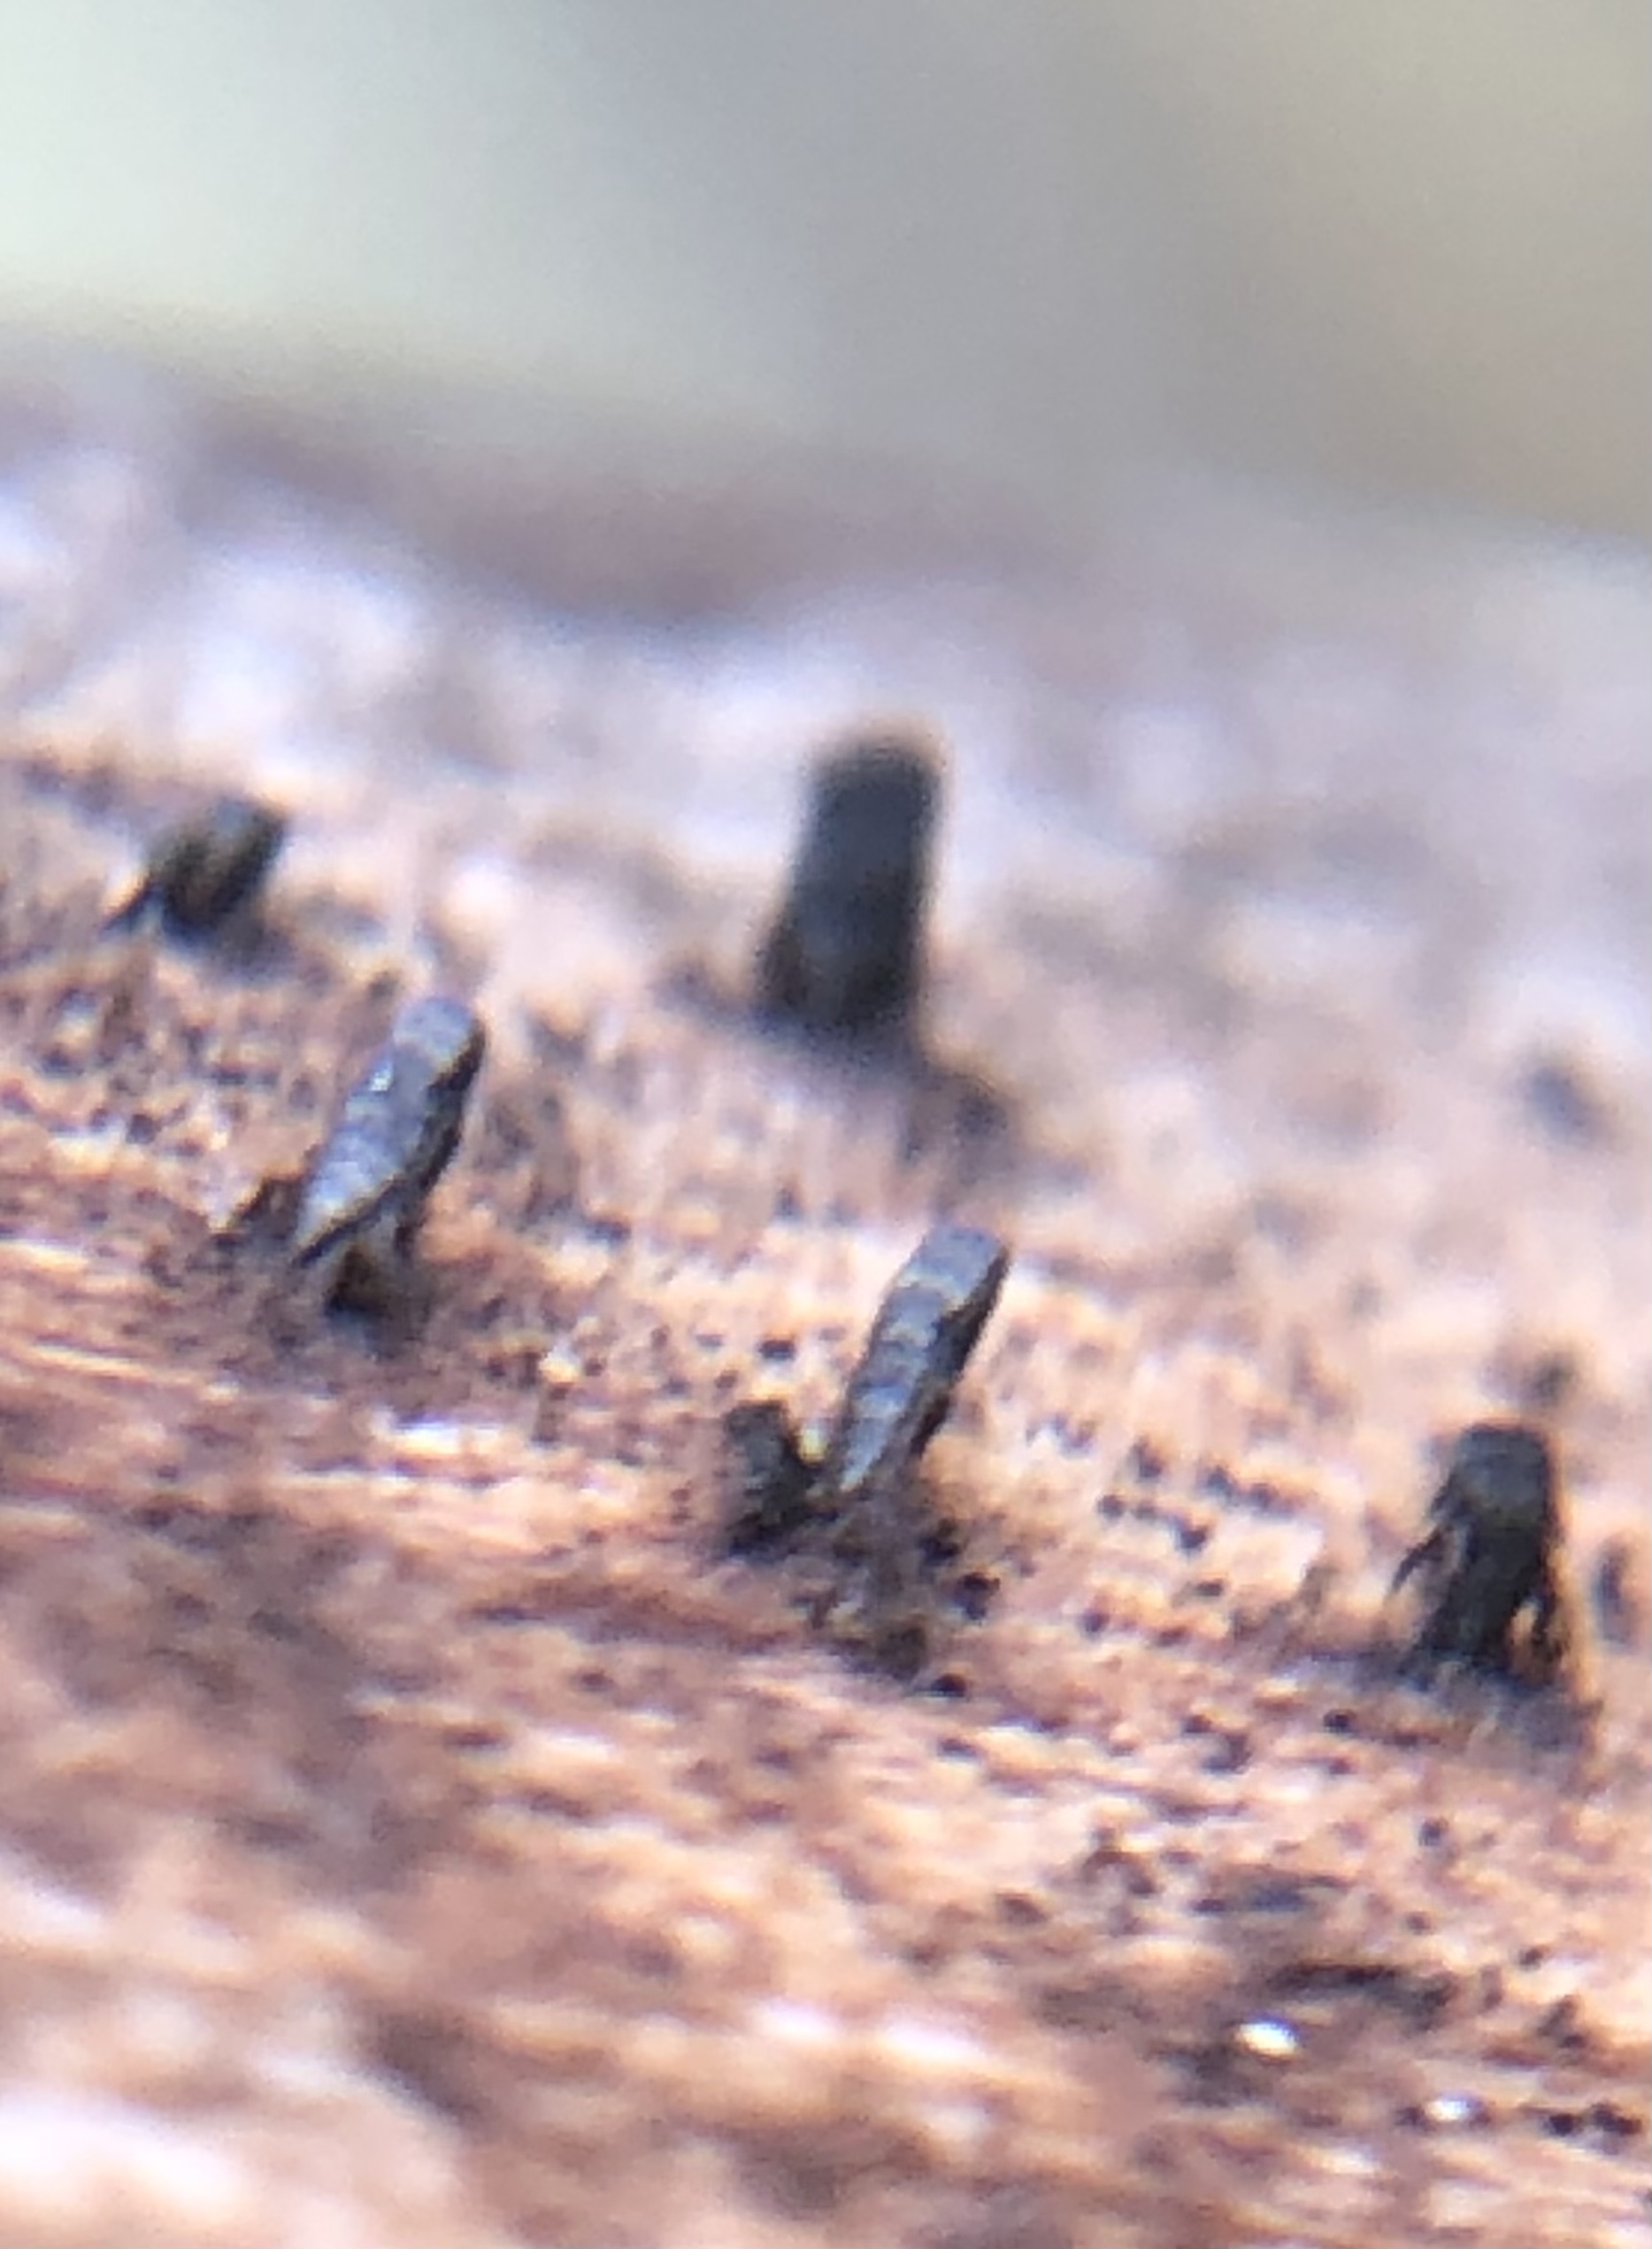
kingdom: Fungi
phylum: Ascomycota
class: Eurotiomycetes
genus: Glyphium
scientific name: Glyphium elatum
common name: kuløkse
